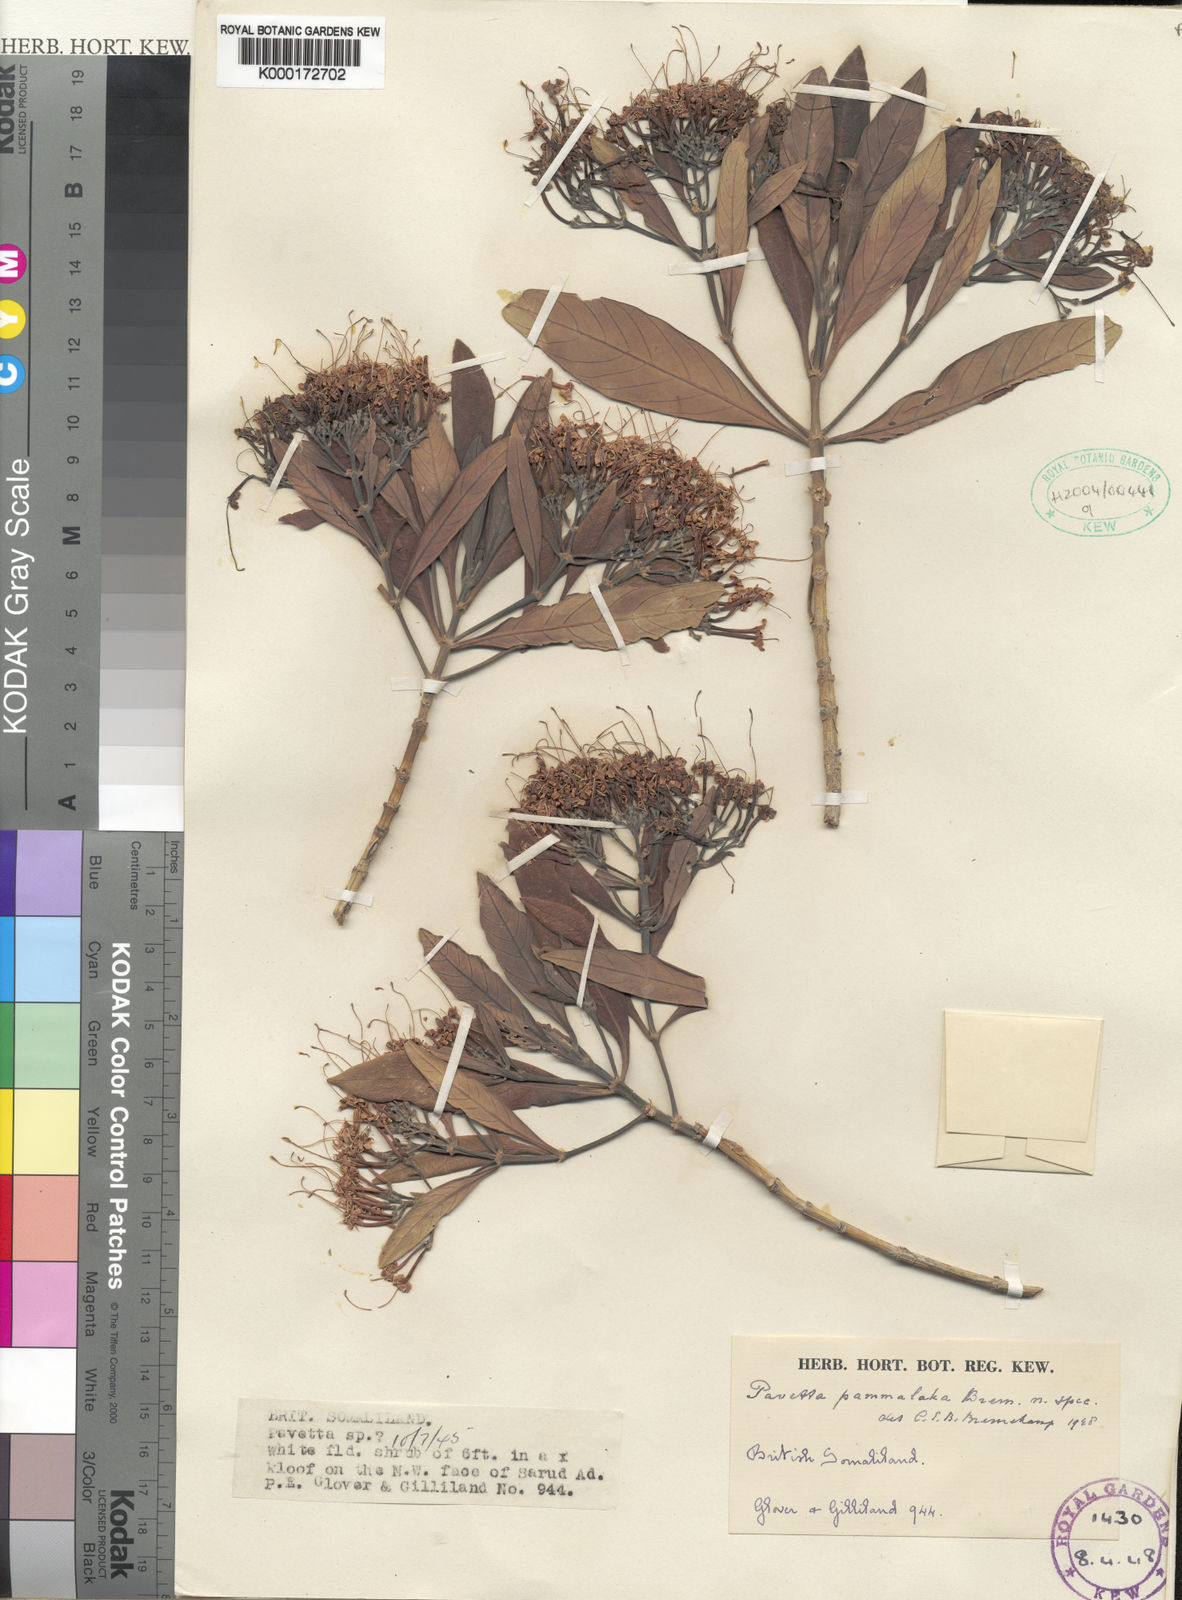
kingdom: Plantae
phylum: Tracheophyta
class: Magnoliopsida
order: Gentianales
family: Rubiaceae
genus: Pavetta
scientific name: Pavetta pammalaka
